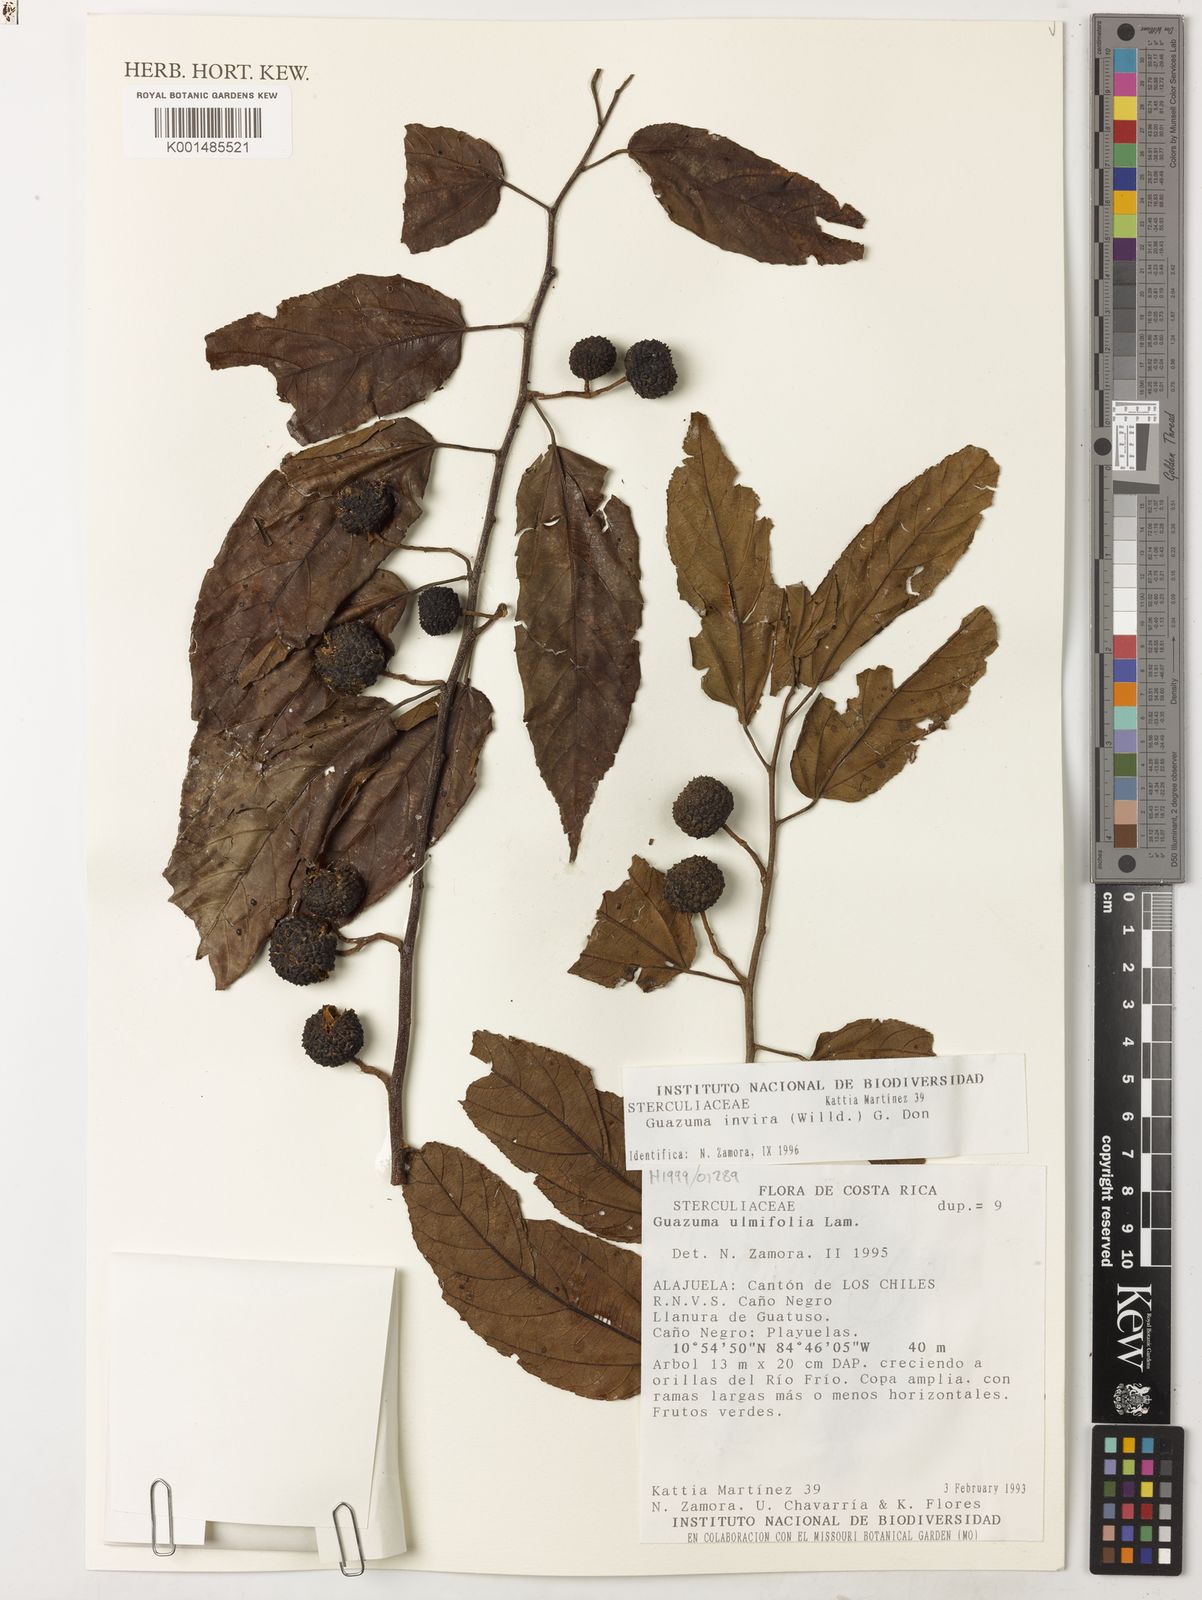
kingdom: Plantae
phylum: Tracheophyta
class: Magnoliopsida
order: Malvales
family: Malvaceae
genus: Guazuma
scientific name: Guazuma invira
